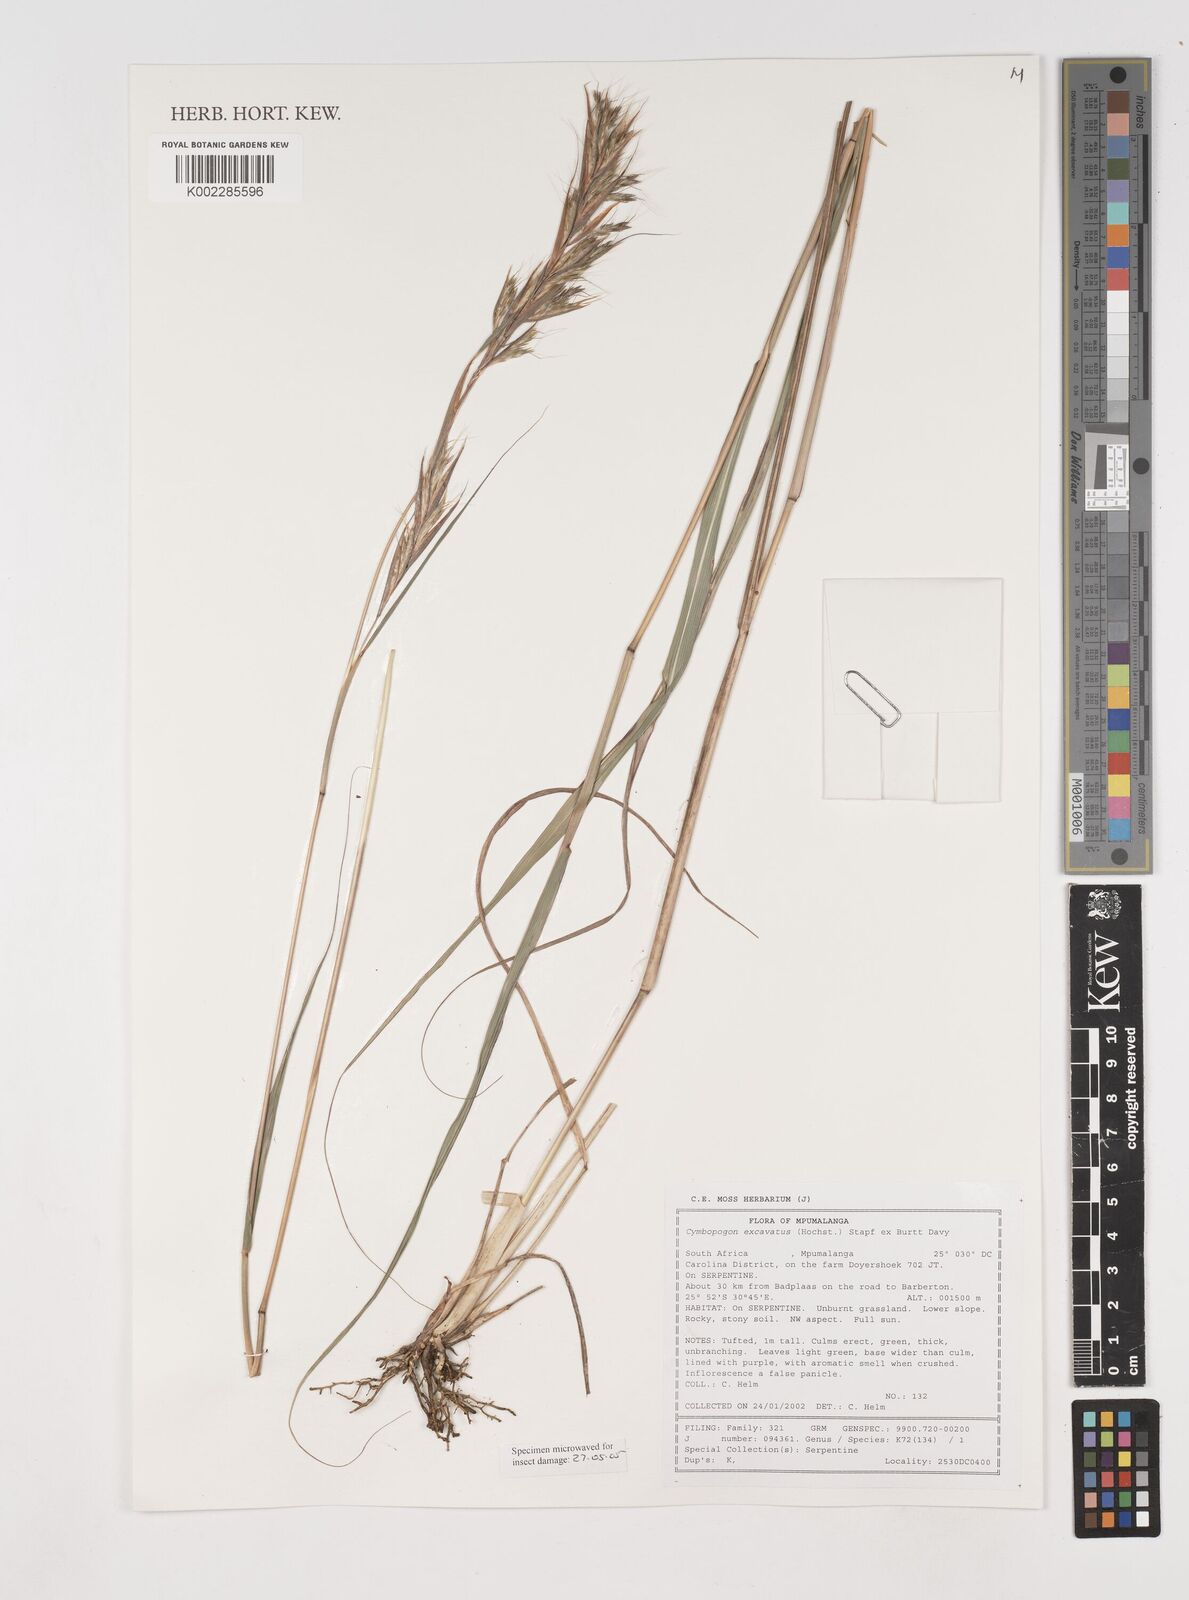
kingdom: Plantae
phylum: Tracheophyta
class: Liliopsida
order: Poales
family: Poaceae
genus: Cymbopogon
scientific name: Cymbopogon caesius
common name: Kachi grass
